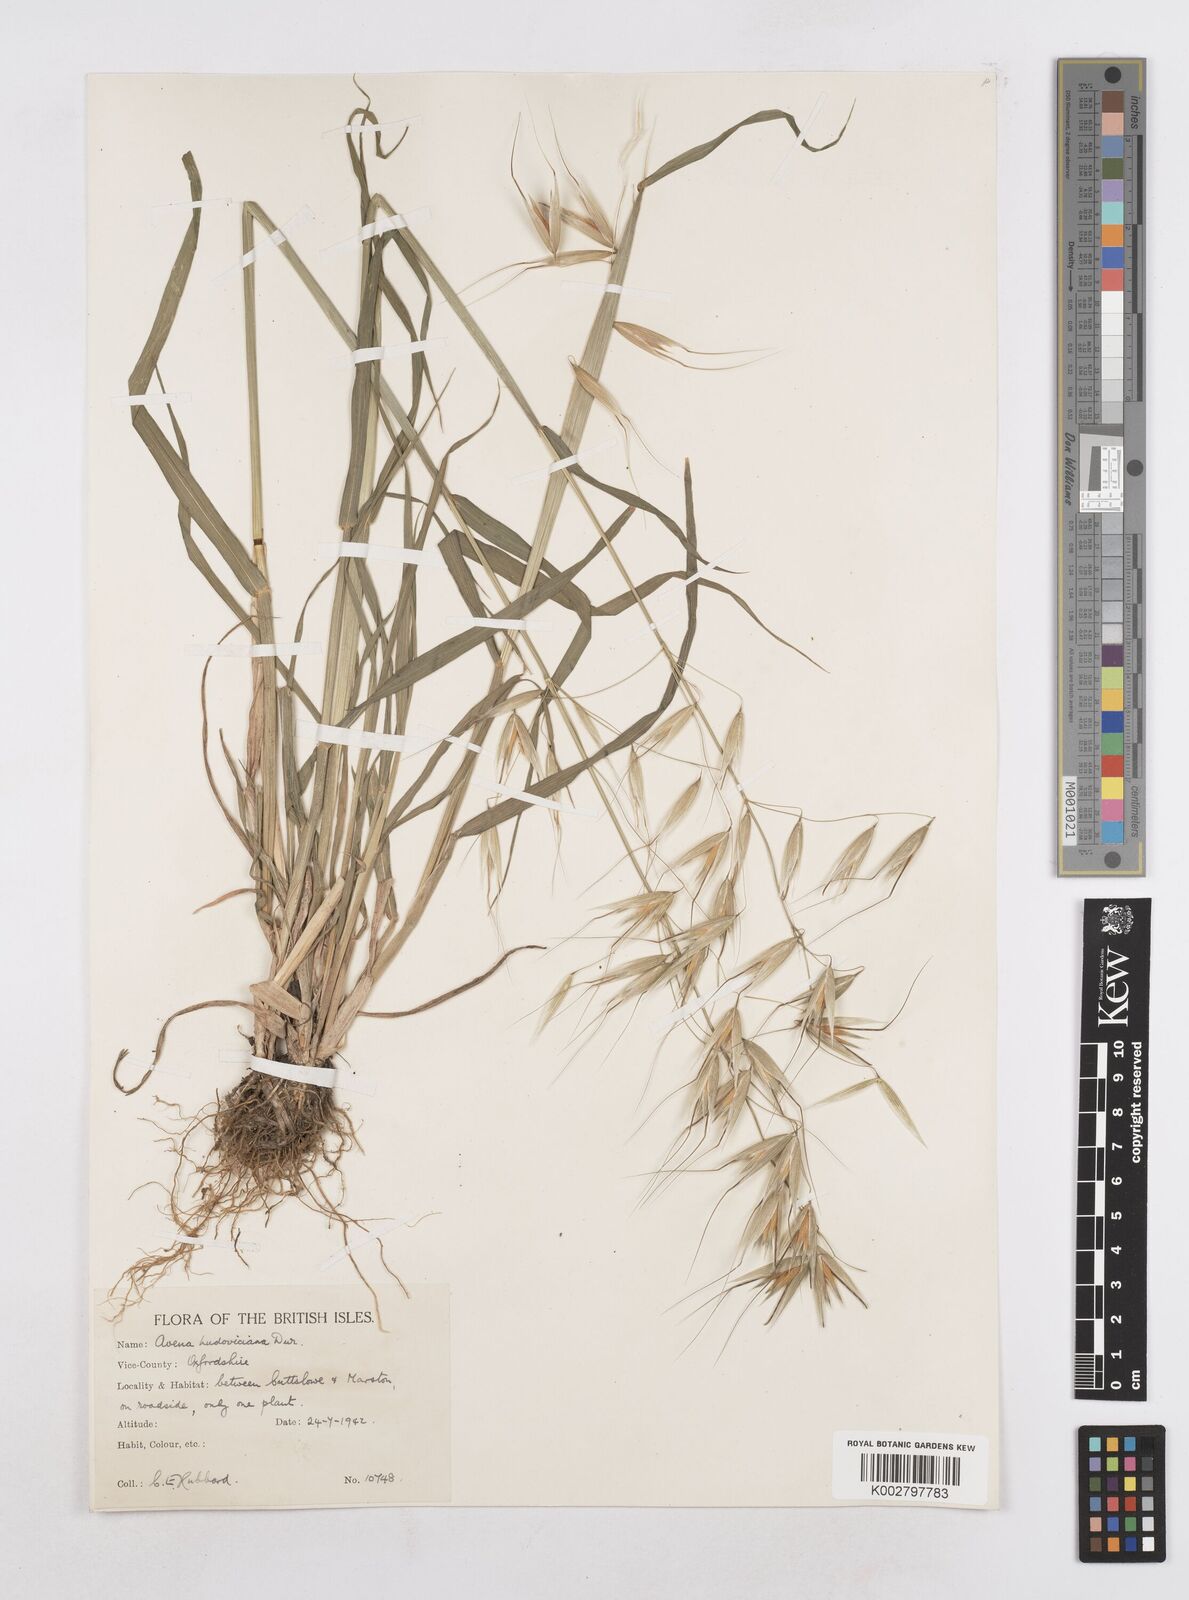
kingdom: Plantae
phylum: Tracheophyta
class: Liliopsida
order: Poales
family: Poaceae
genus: Avena
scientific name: Avena sterilis
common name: Animated oat
